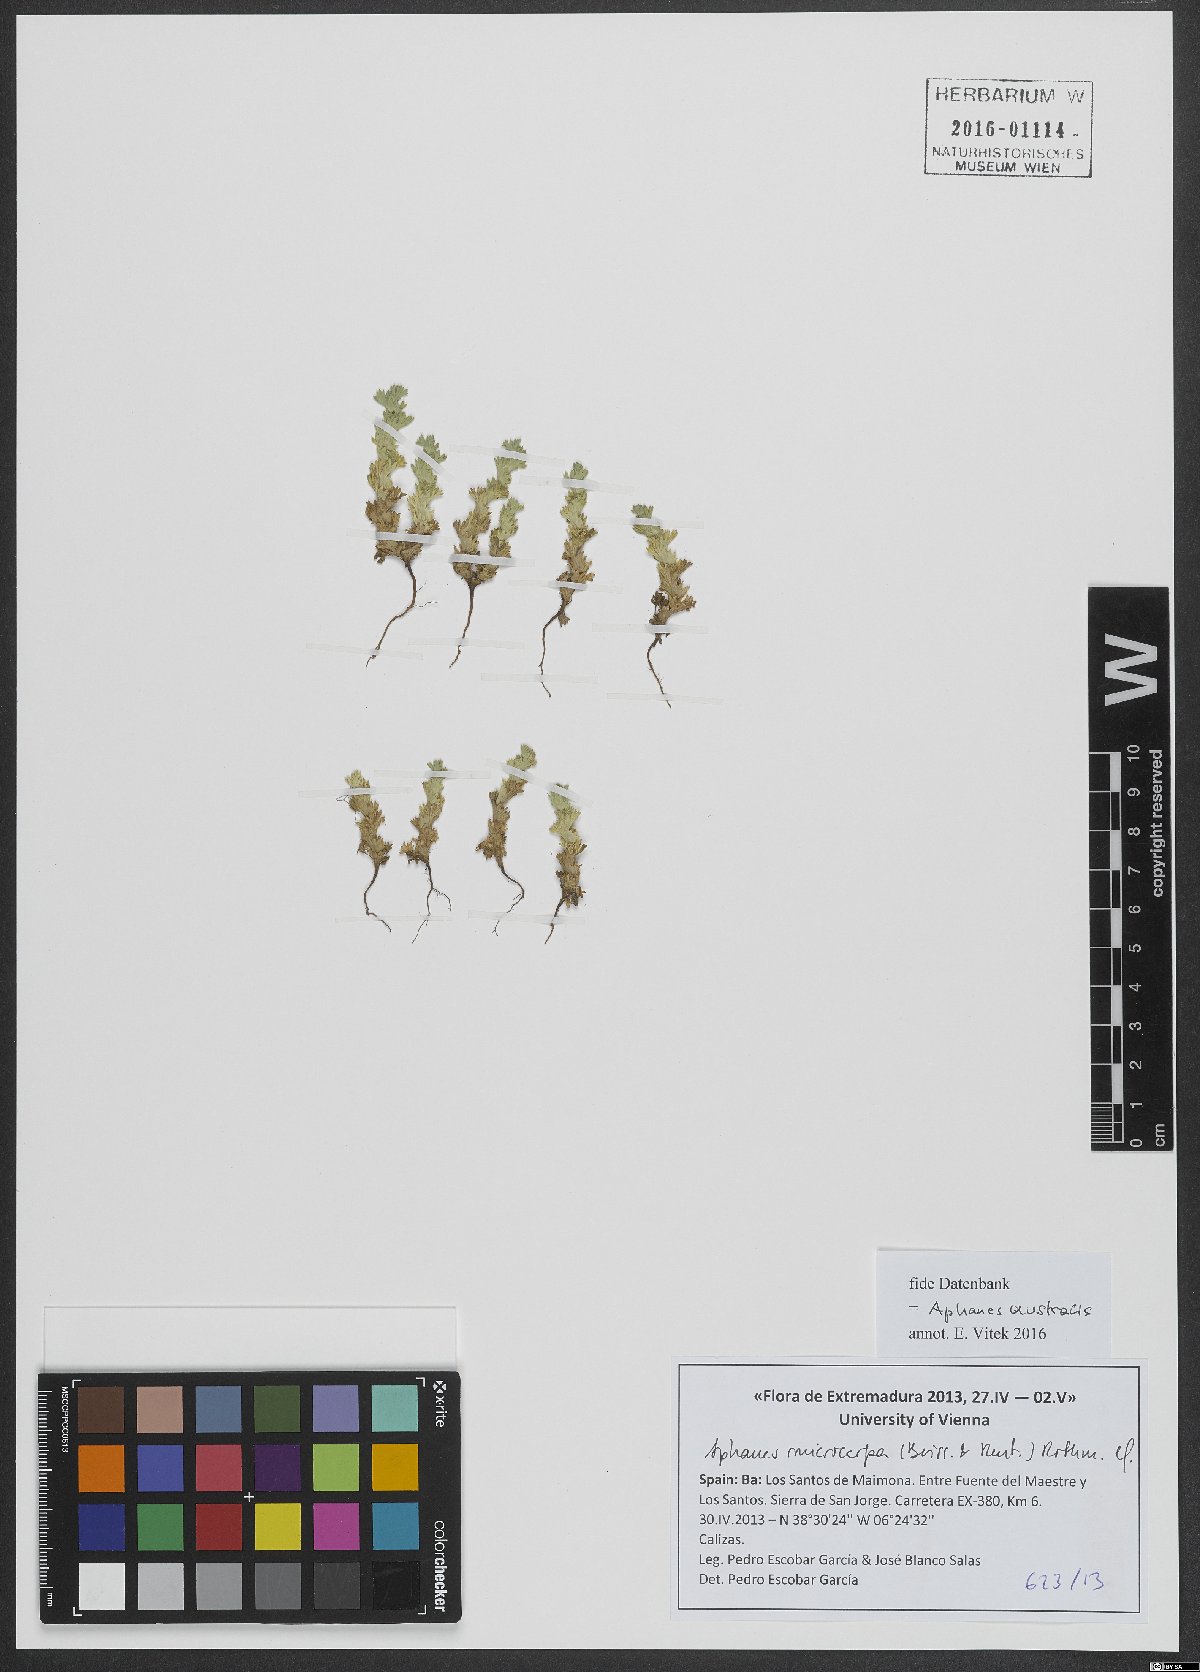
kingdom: Plantae
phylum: Tracheophyta
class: Magnoliopsida
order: Rosales
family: Rosaceae
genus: Aphanes
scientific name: Aphanes microcarpa
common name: Slender parsley piert
